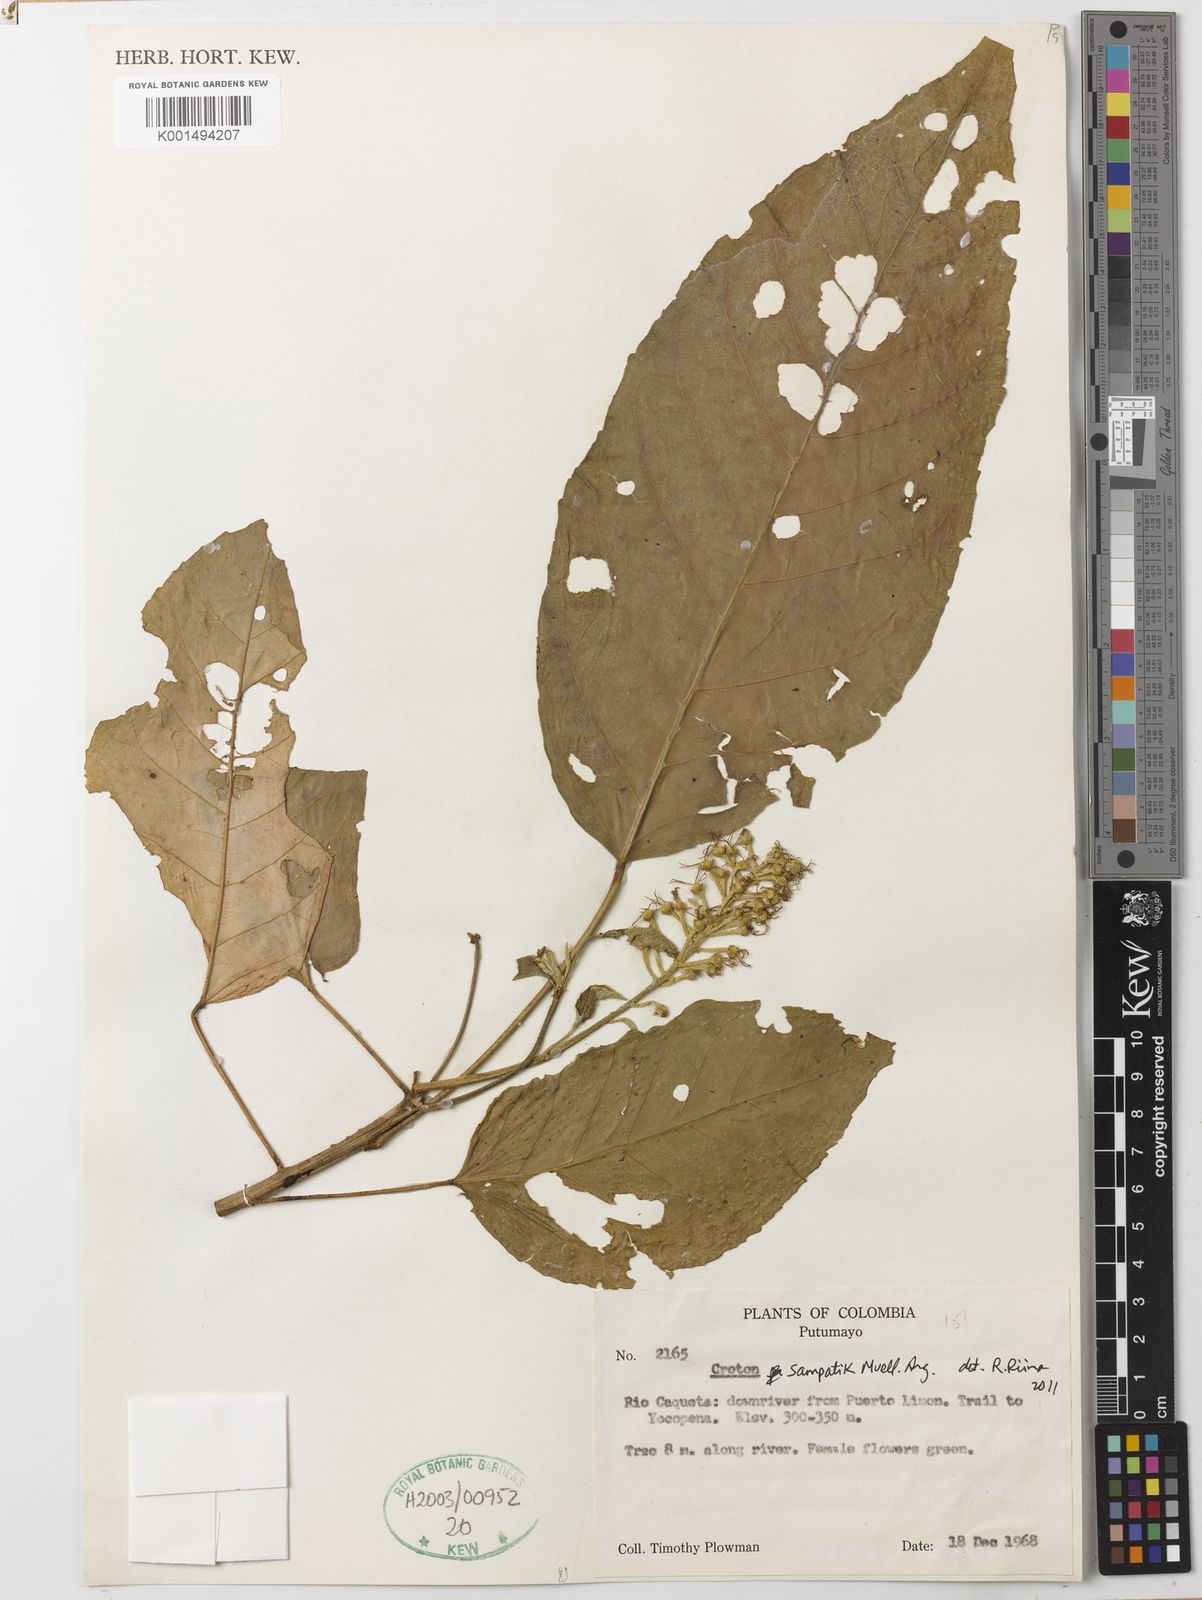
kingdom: Plantae
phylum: Tracheophyta
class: Magnoliopsida
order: Malpighiales
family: Euphorbiaceae
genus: Croton
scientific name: Croton sampatik
